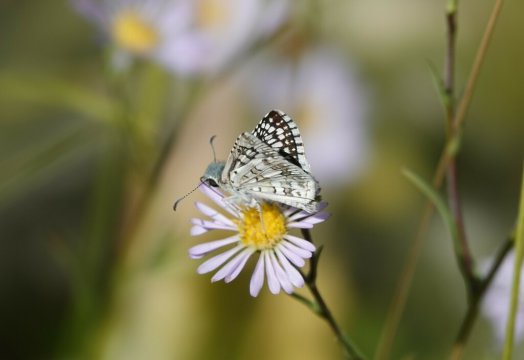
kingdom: Animalia
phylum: Arthropoda
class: Insecta
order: Lepidoptera
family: Hesperiidae
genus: Pyrgus
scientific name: Pyrgus communis
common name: Common Checkered-Skipper
